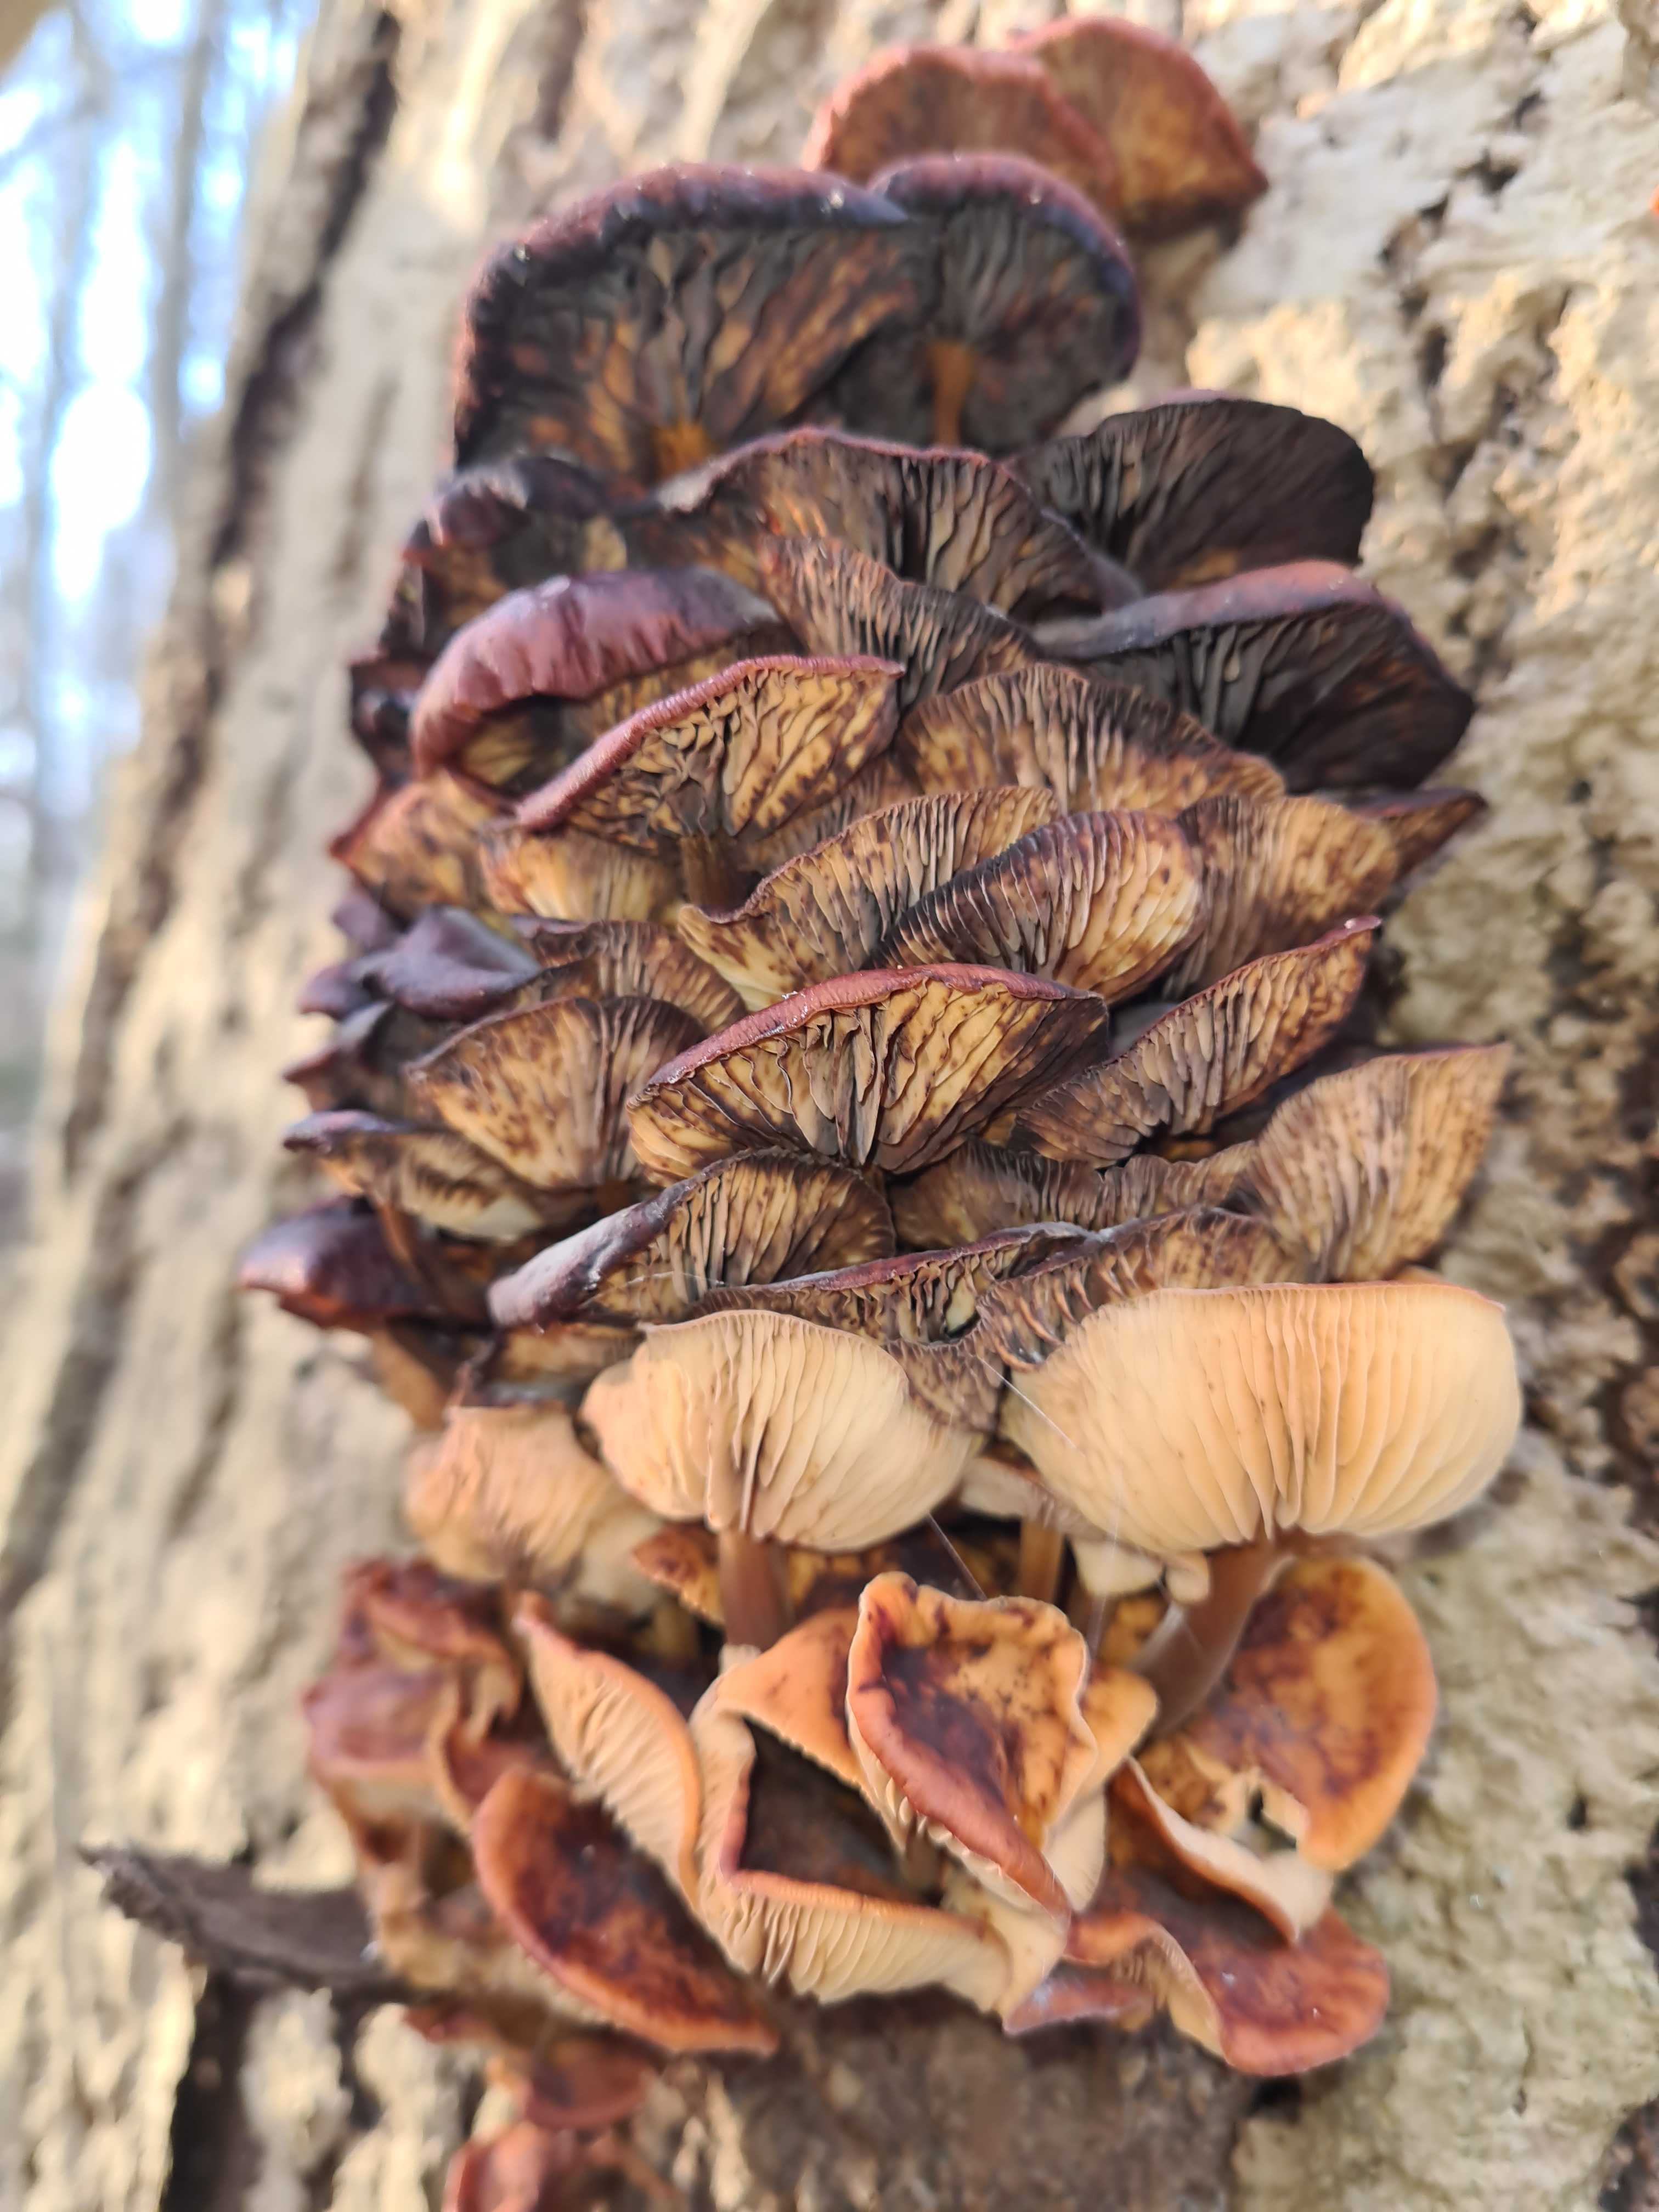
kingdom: Fungi
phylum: Basidiomycota
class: Agaricomycetes
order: Agaricales
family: Physalacriaceae
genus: Flammulina
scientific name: Flammulina
